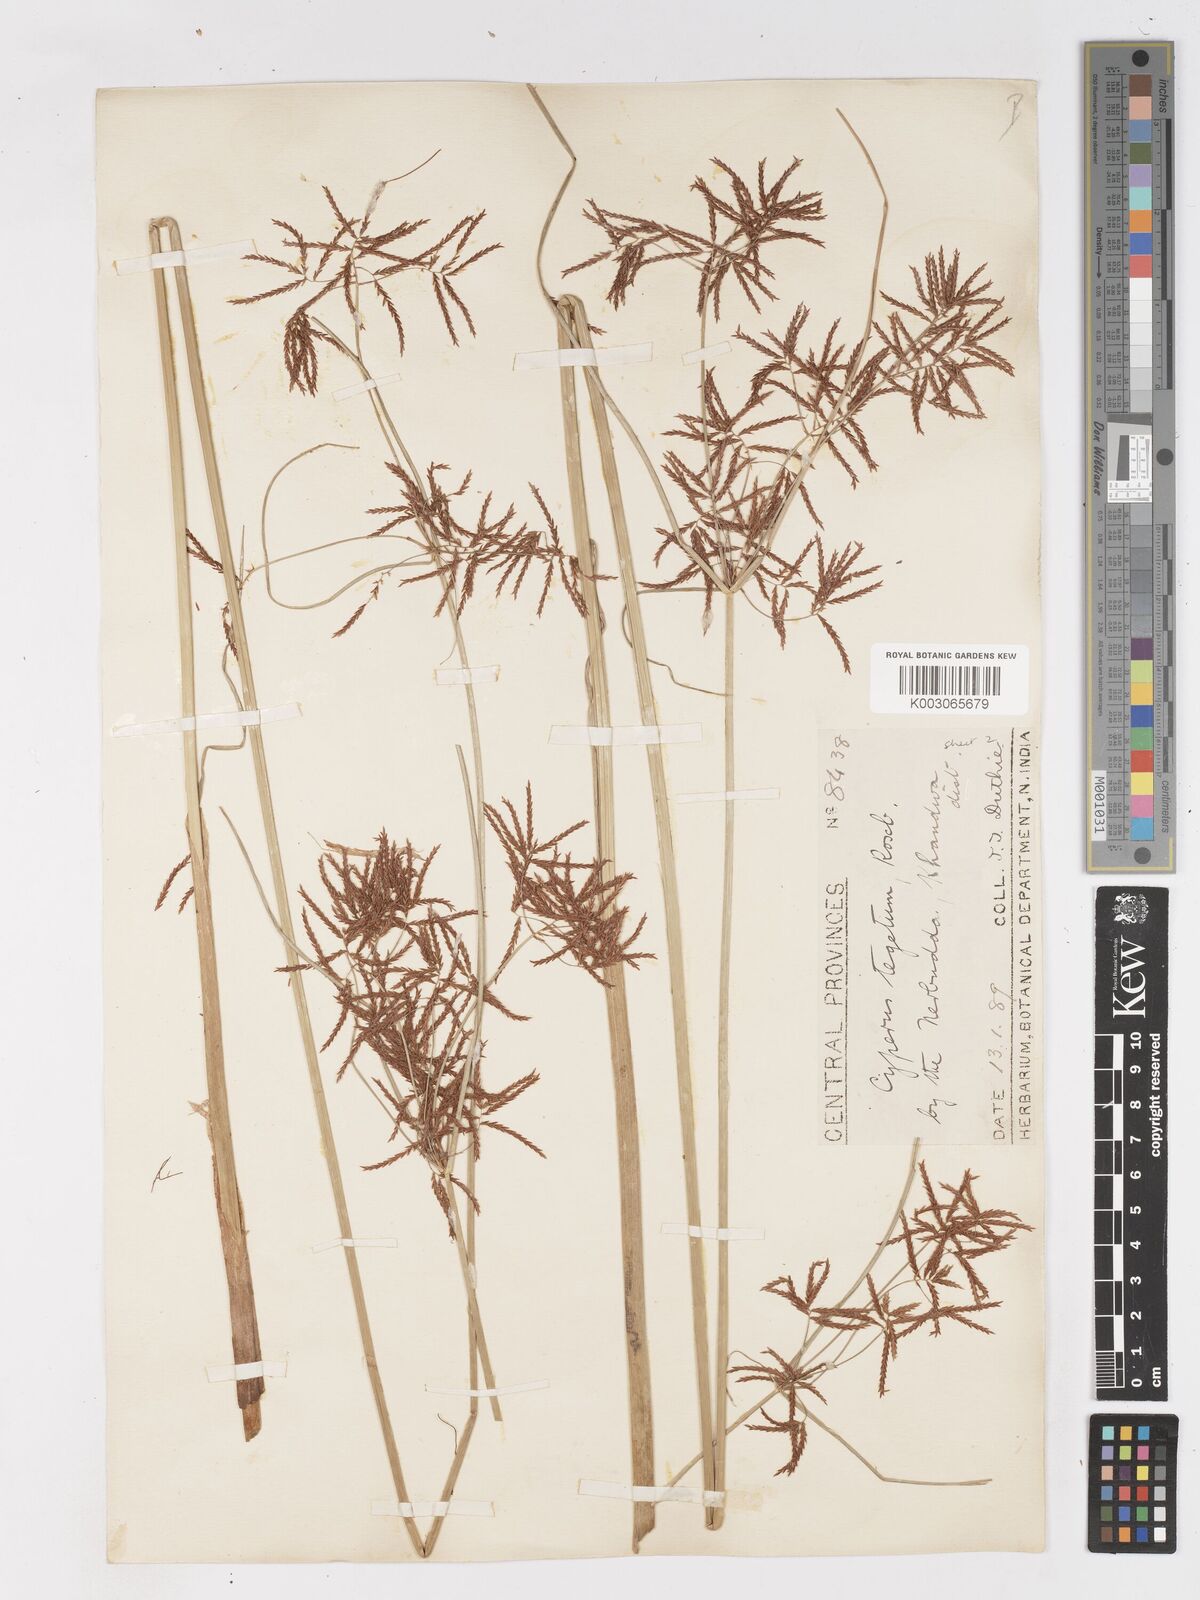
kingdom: Plantae
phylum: Tracheophyta
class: Liliopsida
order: Poales
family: Cyperaceae
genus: Cyperus
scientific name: Cyperus pangorei
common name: Mat sedge
